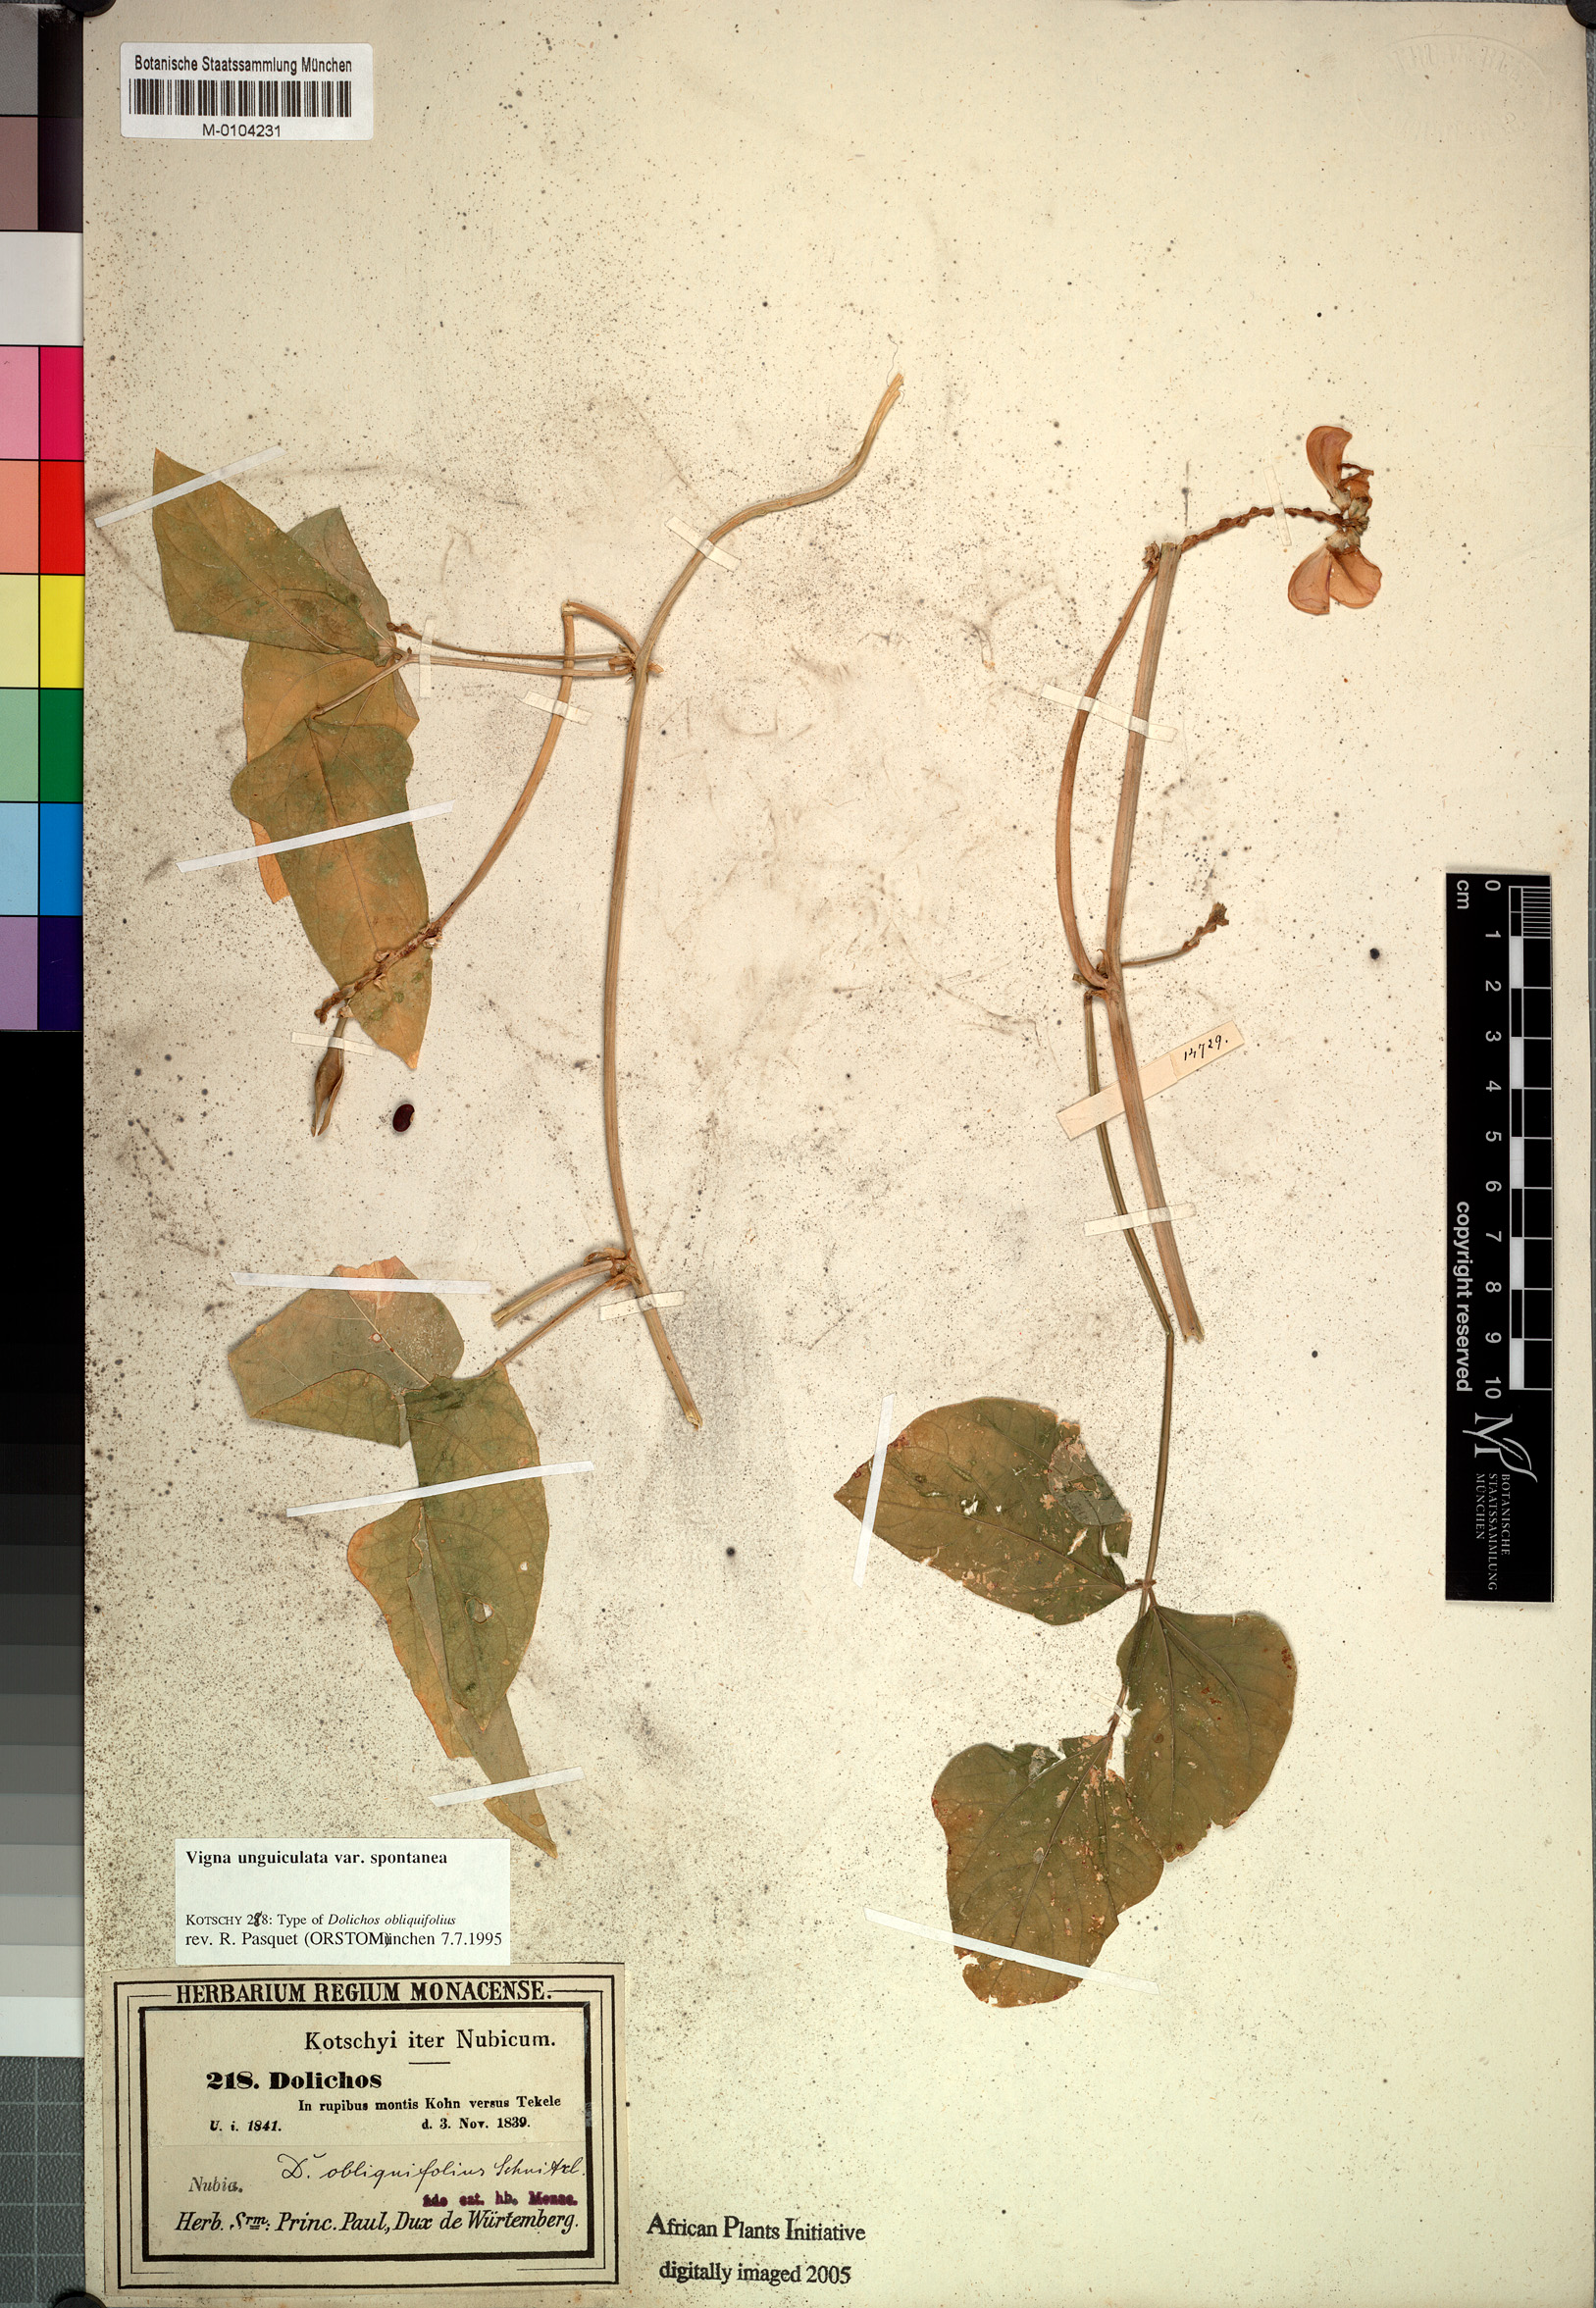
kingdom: Plantae
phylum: Tracheophyta
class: Magnoliopsida
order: Fabales
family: Fabaceae
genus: Vigna
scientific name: Vigna unguiculata
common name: Cowpea
